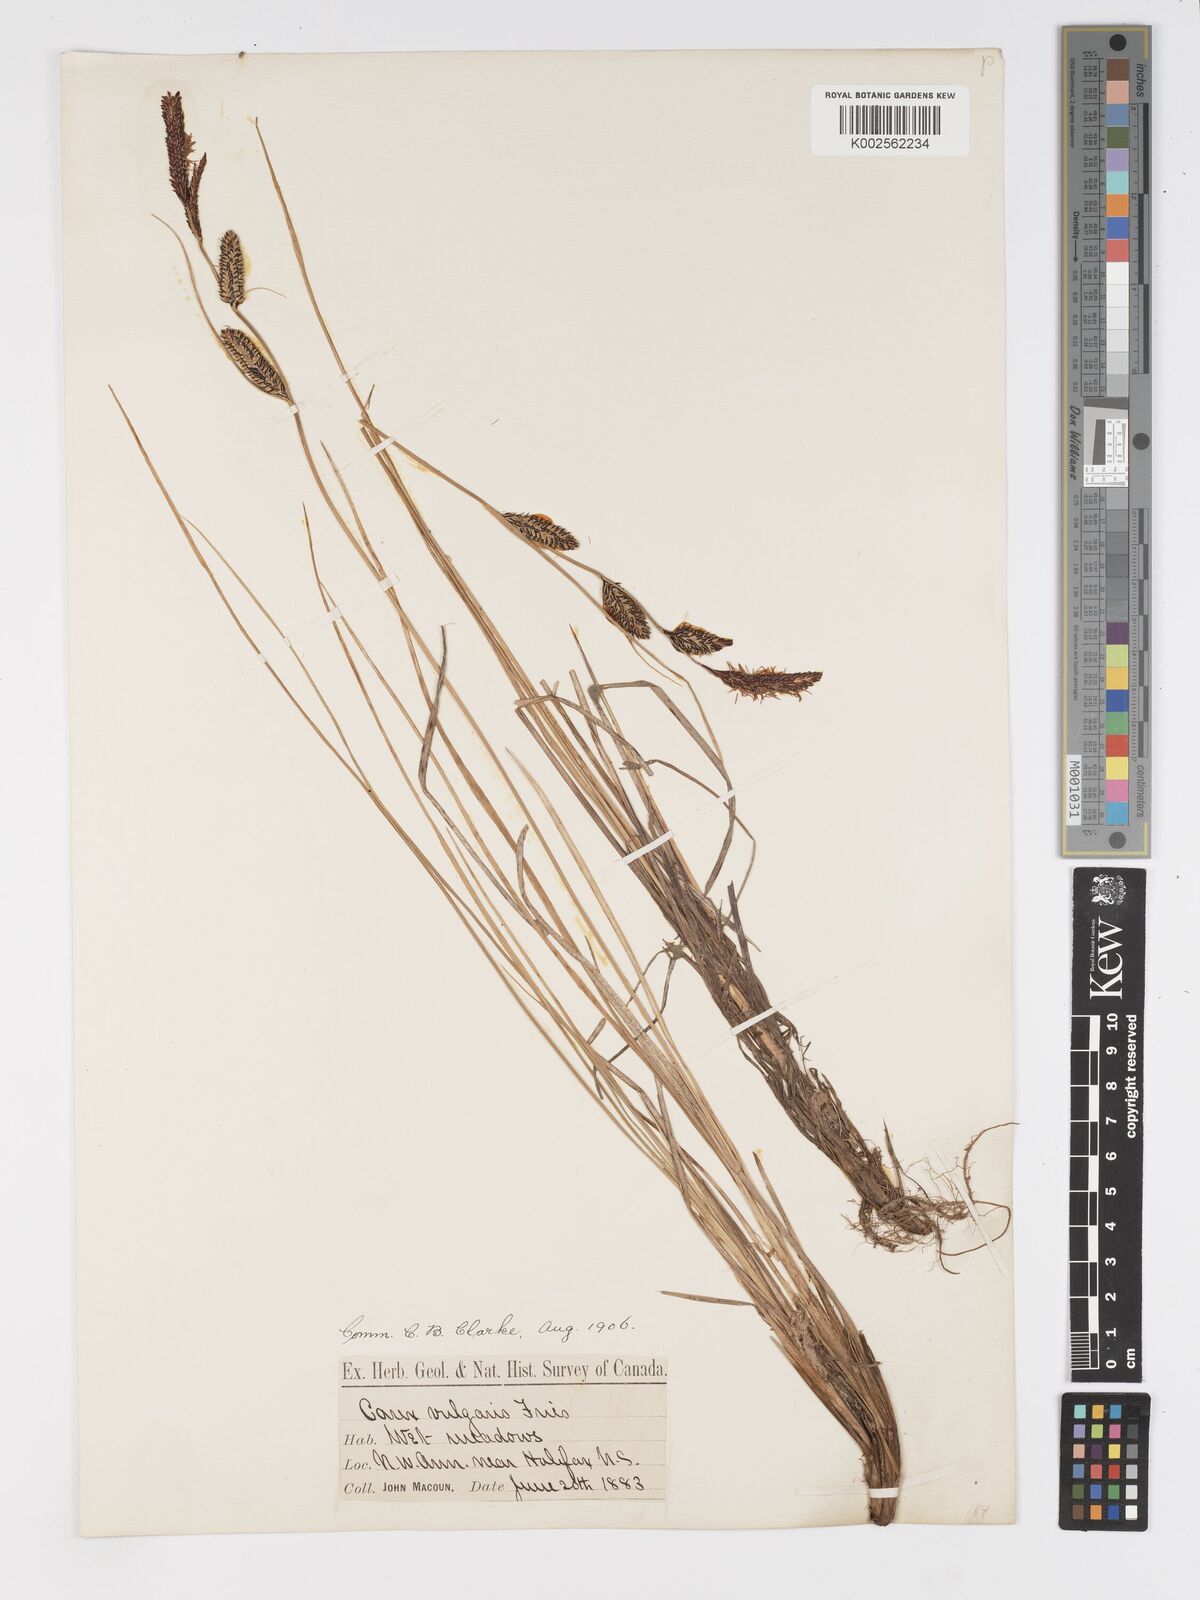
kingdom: Plantae
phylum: Tracheophyta
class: Liliopsida
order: Poales
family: Cyperaceae
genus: Carex
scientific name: Carex nebrascensis
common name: Nebraska sedge
